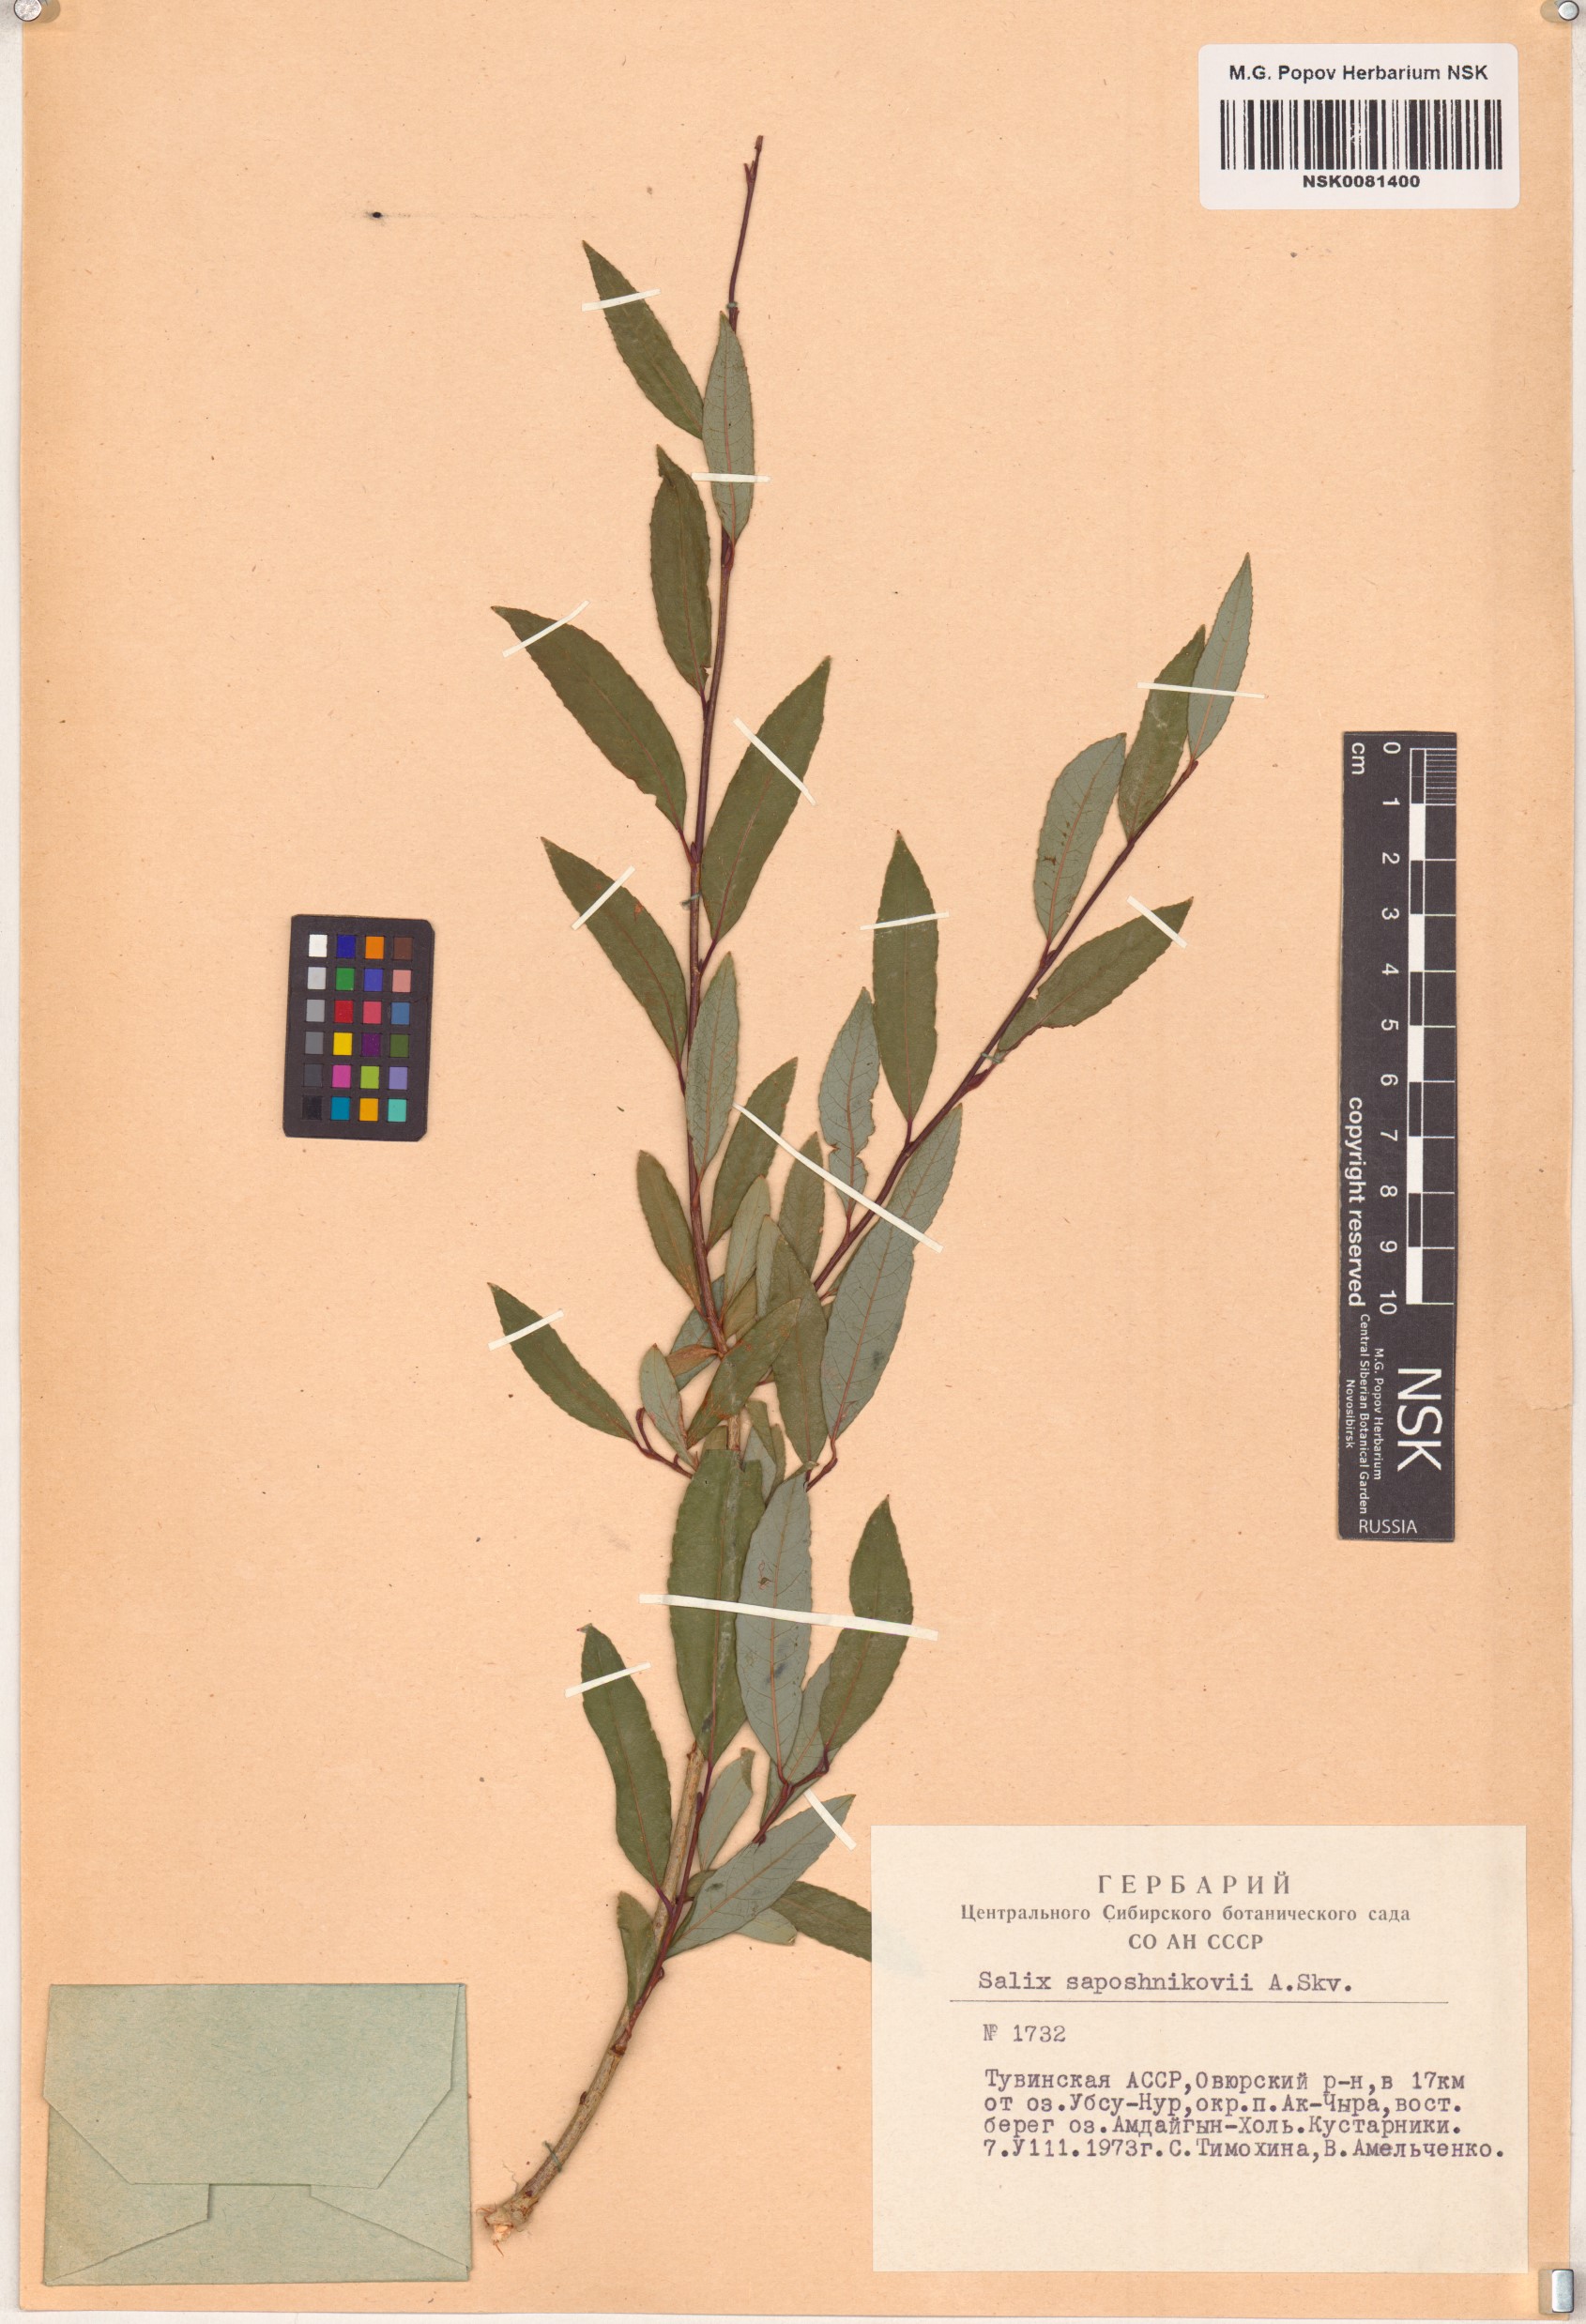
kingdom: Plantae
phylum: Tracheophyta
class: Magnoliopsida
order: Malpighiales
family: Salicaceae
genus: Salix
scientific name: Salix saposhnikovii
